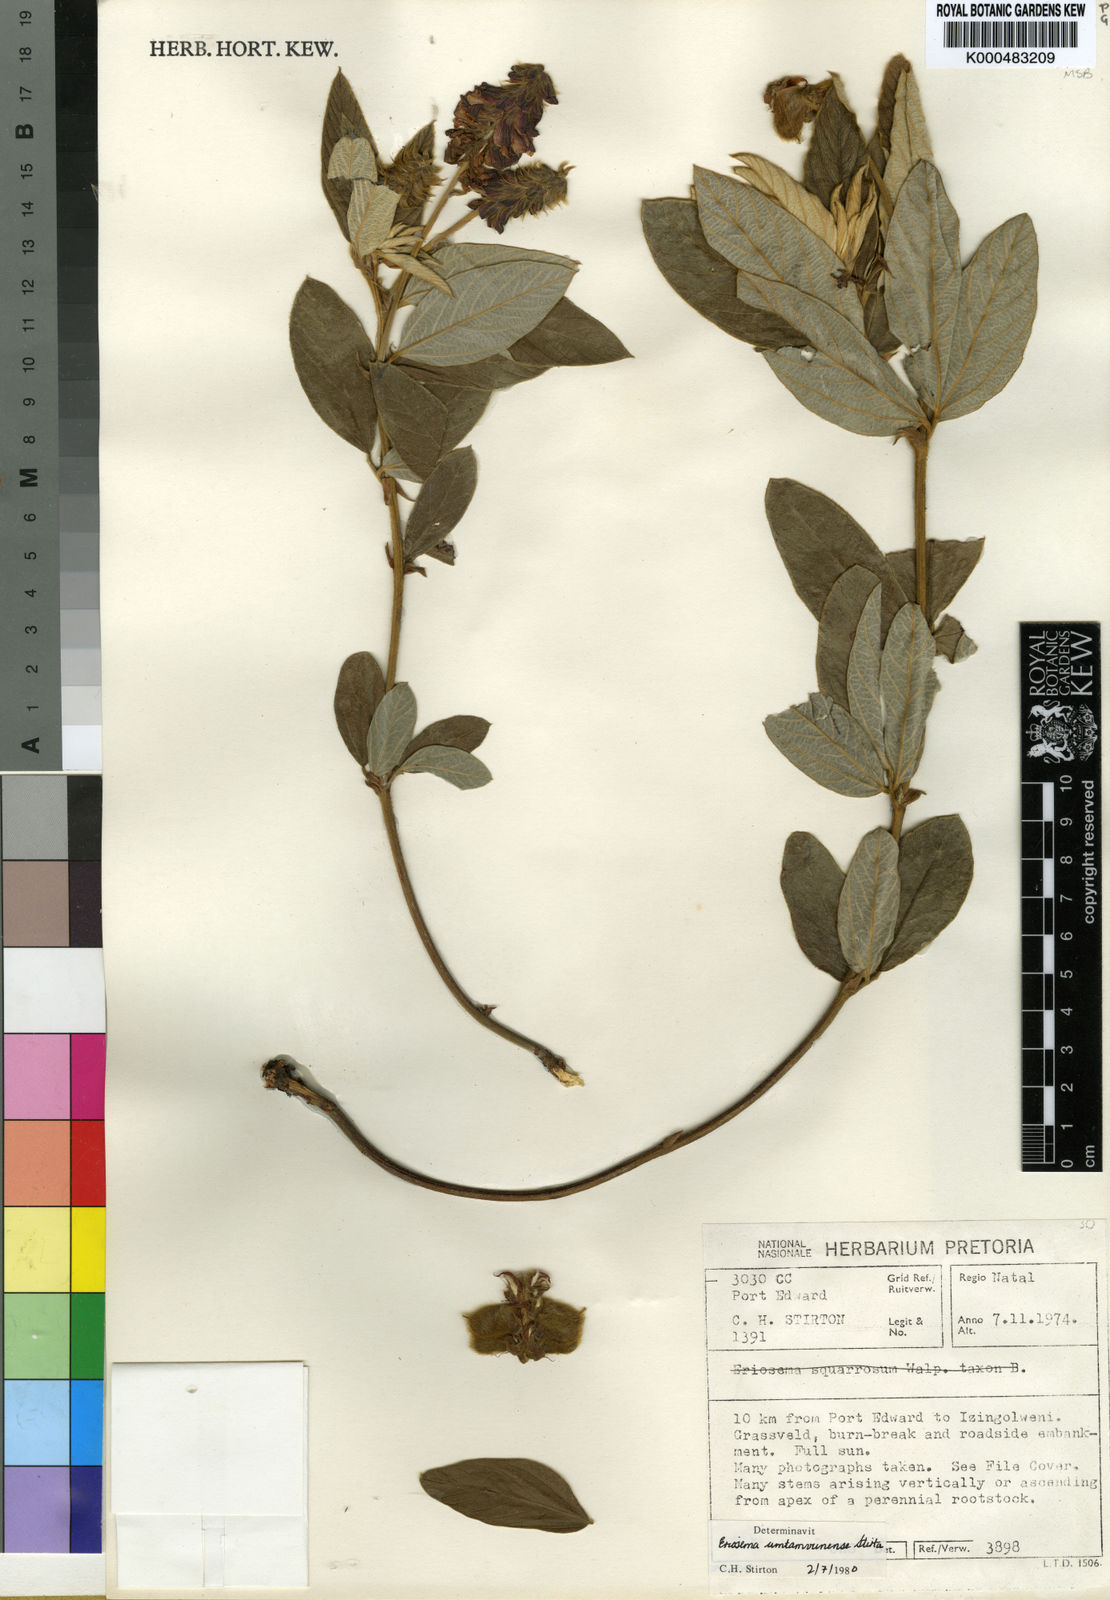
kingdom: Plantae
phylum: Tracheophyta
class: Magnoliopsida
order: Fabales
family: Fabaceae
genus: Eriosema
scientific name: Eriosema umtamvunense
